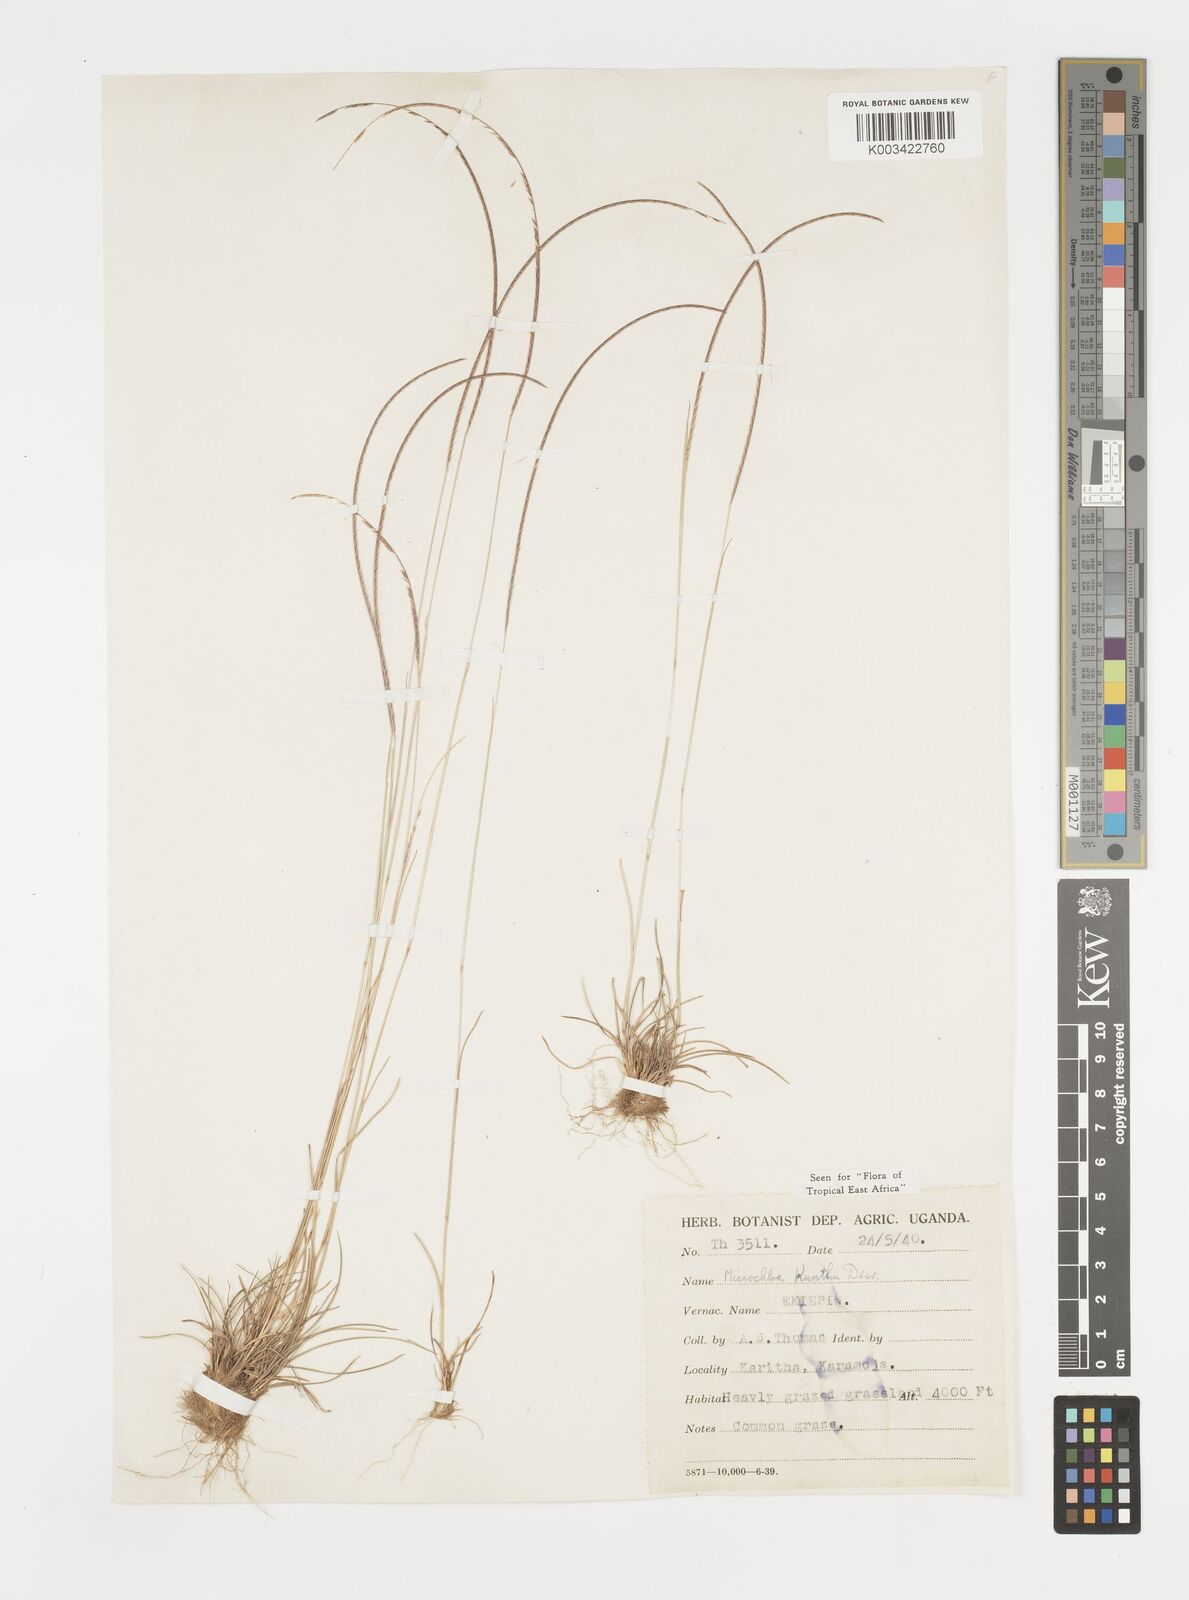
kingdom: Plantae
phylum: Tracheophyta
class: Liliopsida
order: Poales
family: Poaceae
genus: Microchloa
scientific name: Microchloa kunthii
